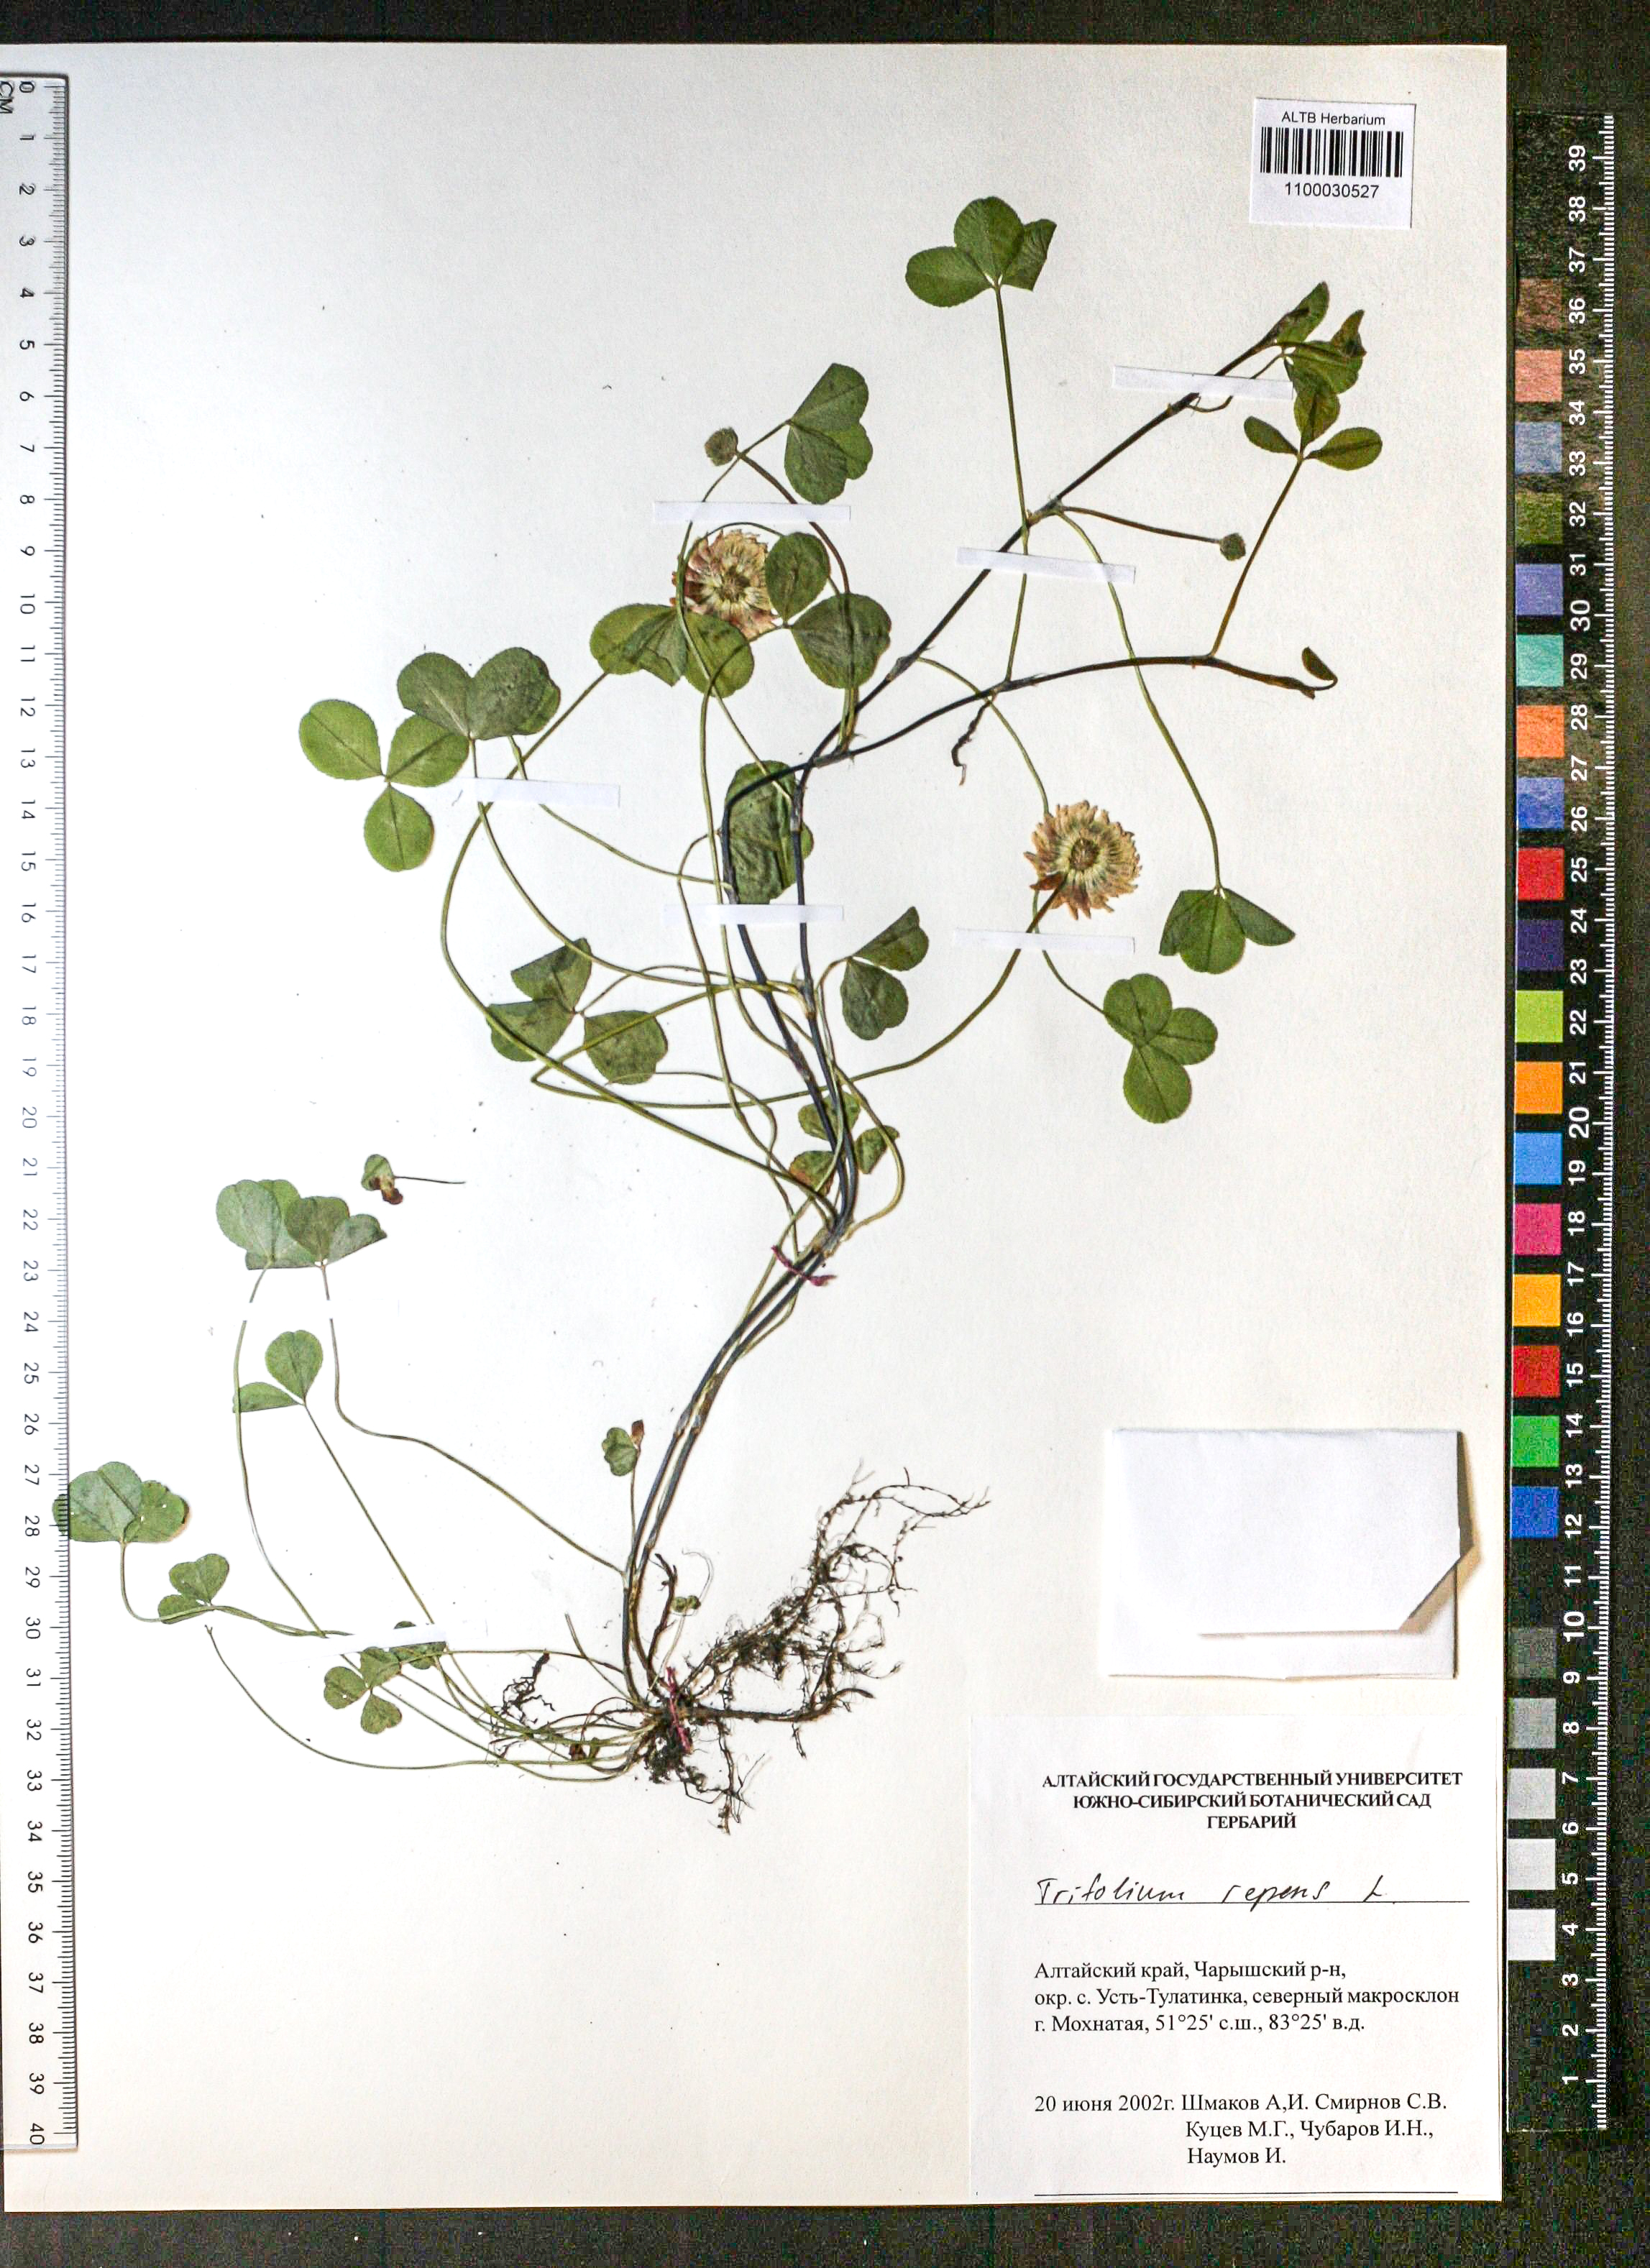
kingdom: Plantae
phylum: Tracheophyta
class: Magnoliopsida
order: Fabales
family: Fabaceae
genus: Trifolium
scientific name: Trifolium repens
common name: White clover
